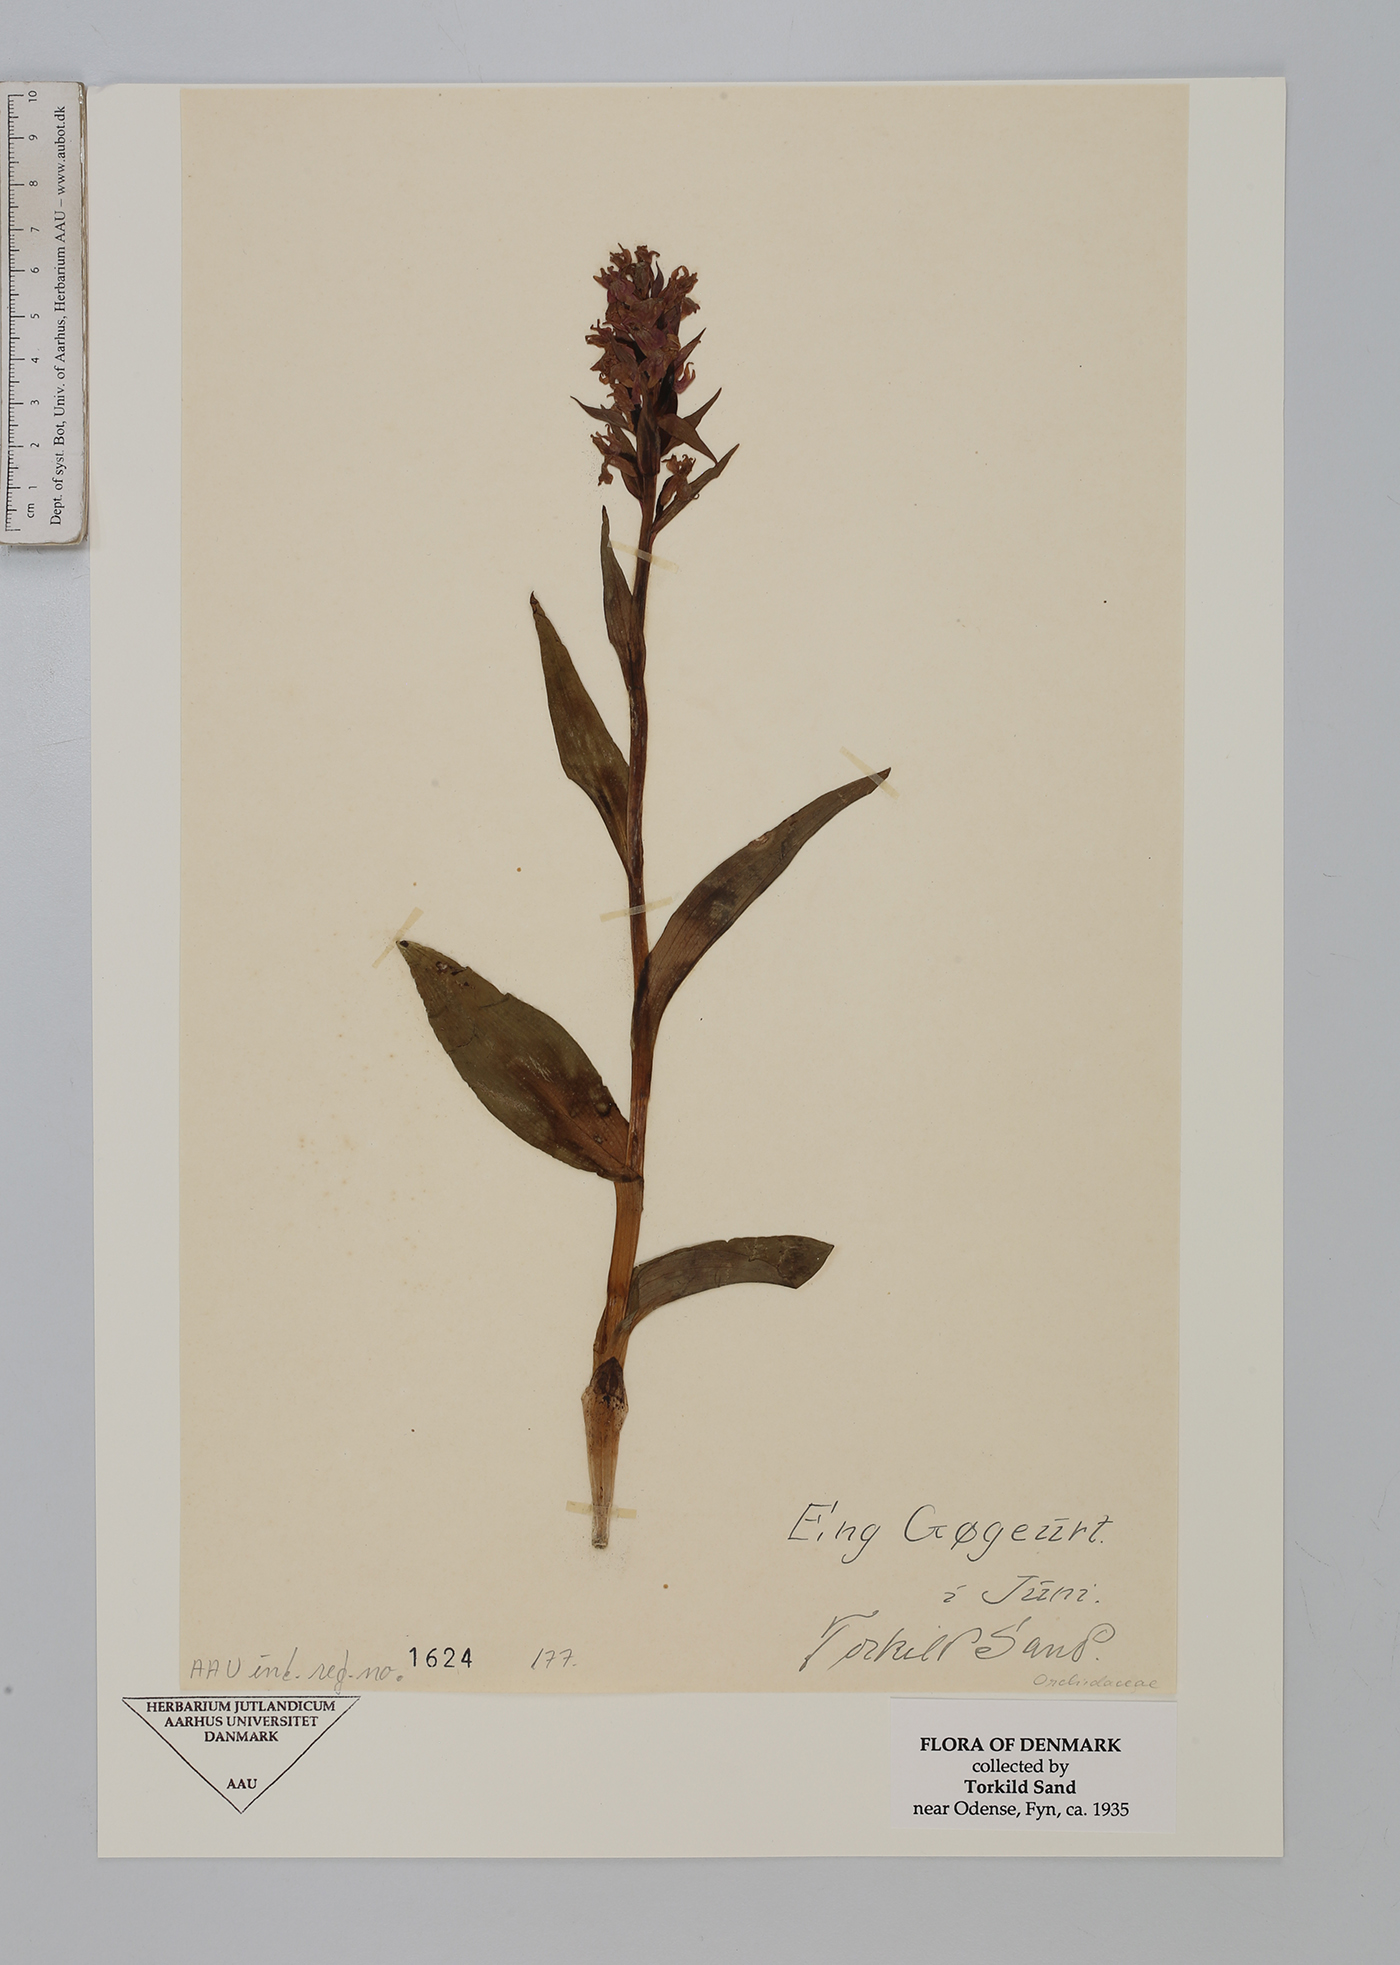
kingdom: Plantae
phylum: Tracheophyta
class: Liliopsida
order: Asparagales
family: Orchidaceae
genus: Dactylorhiza
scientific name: Dactylorhiza incarnata
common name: Early marsh-orchid
